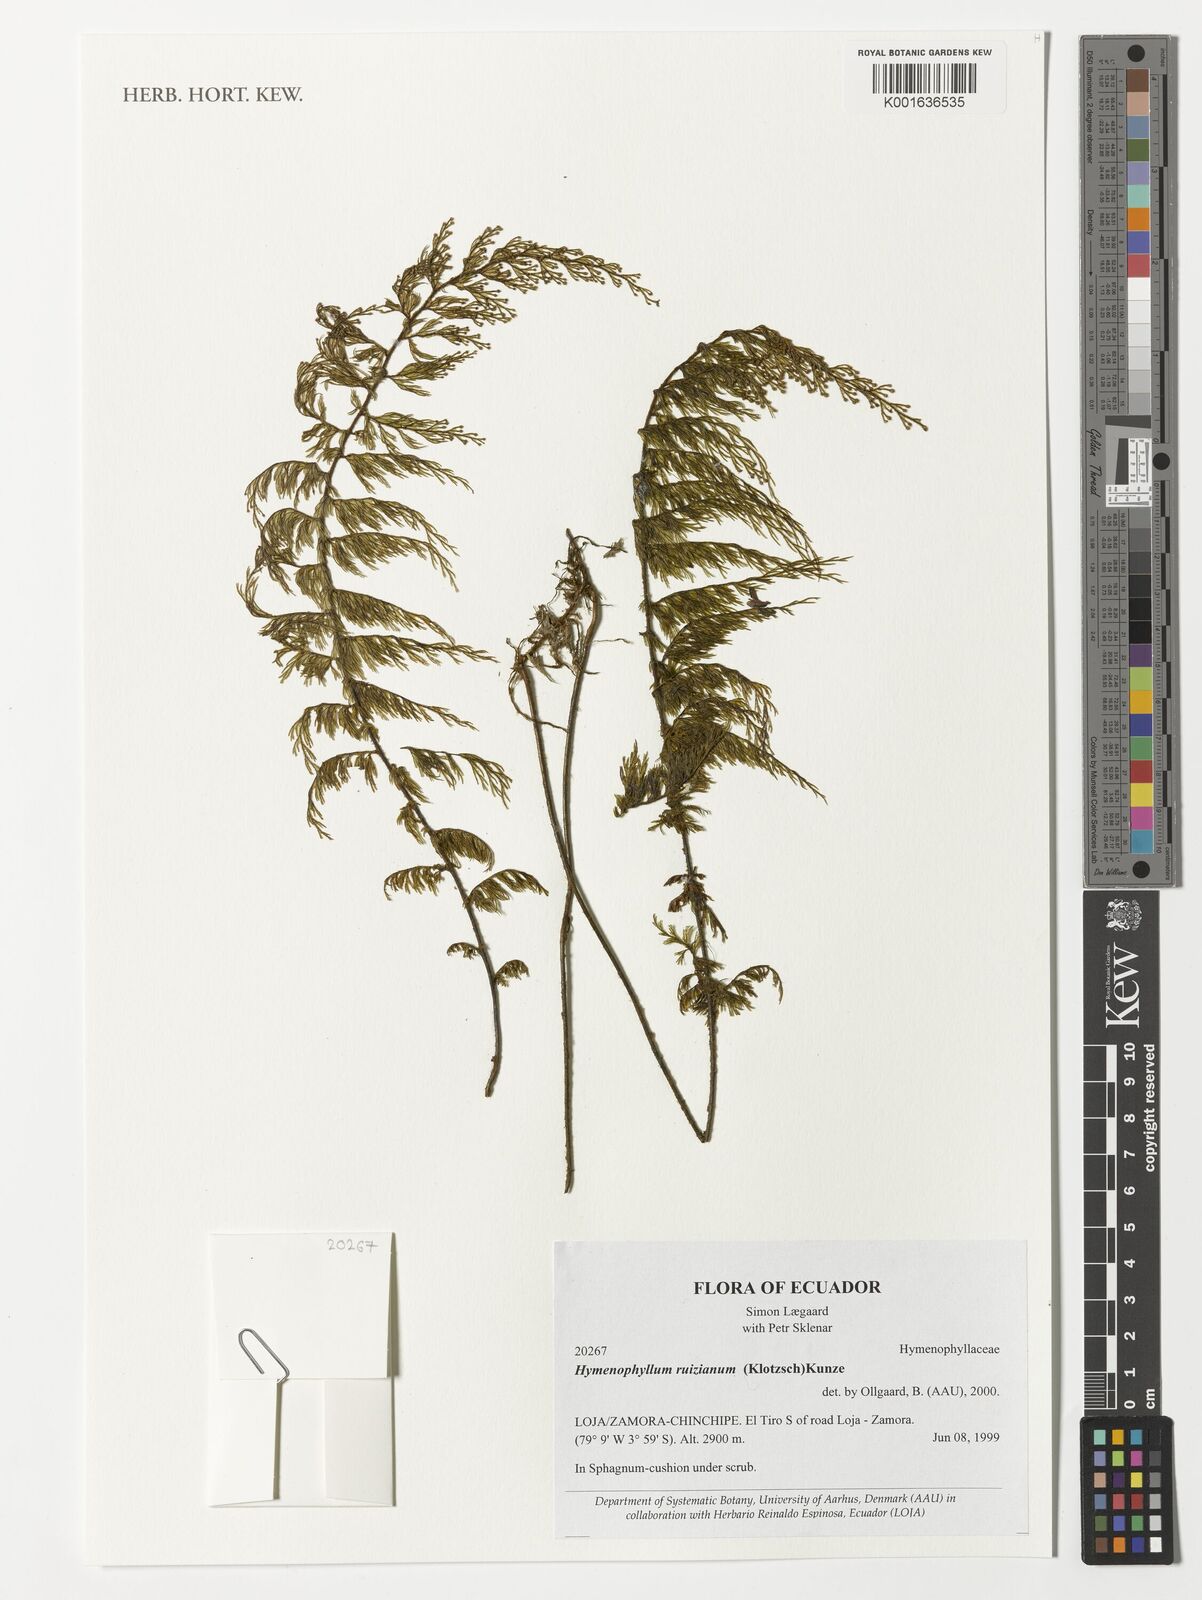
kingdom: Plantae
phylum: Tracheophyta
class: Polypodiopsida
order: Hymenophyllales
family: Hymenophyllaceae
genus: Hymenophyllum
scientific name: Hymenophyllum ruizianum
